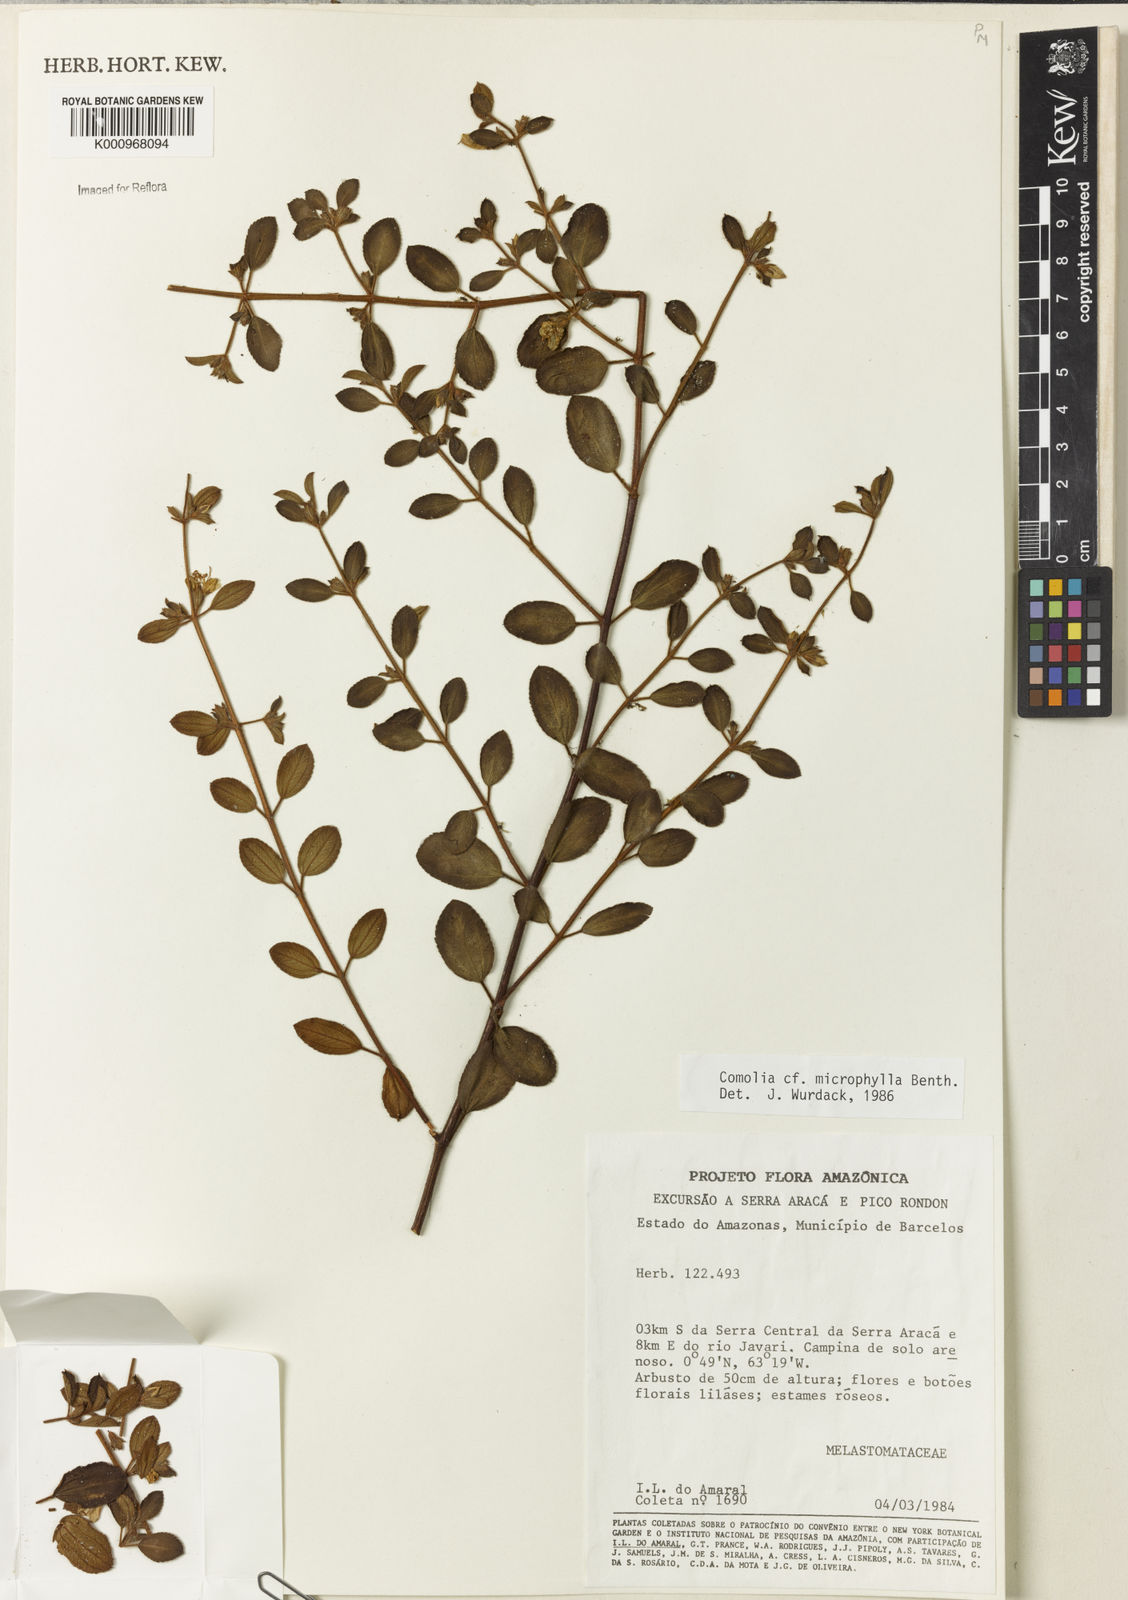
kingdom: Plantae
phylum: Tracheophyta
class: Magnoliopsida
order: Myrtales
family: Melastomataceae
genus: Comolia
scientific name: Comolia microphylla
